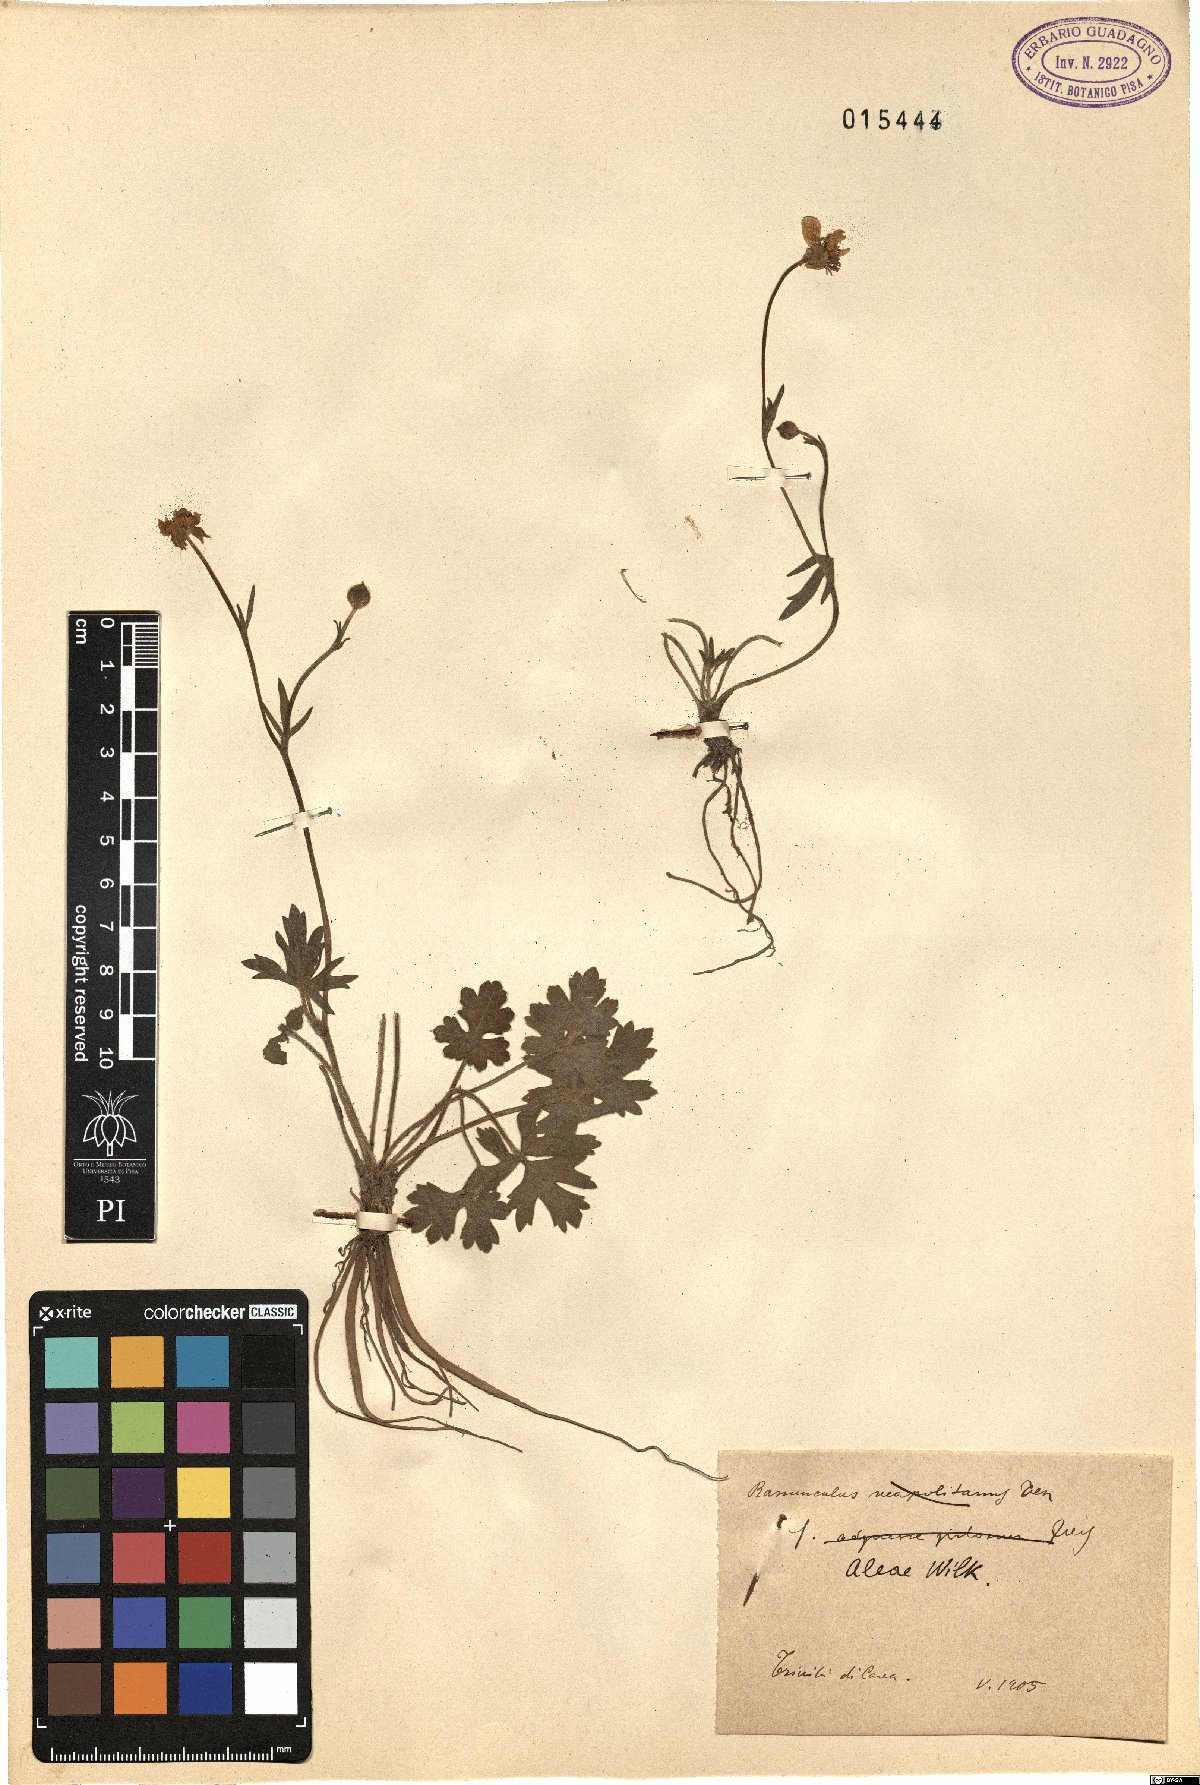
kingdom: Plantae
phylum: Tracheophyta
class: Magnoliopsida
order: Ranunculales
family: Ranunculaceae
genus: Ranunculus
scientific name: Ranunculus neapolitanus
